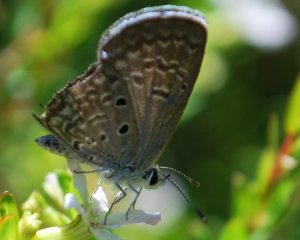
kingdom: Animalia
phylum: Arthropoda
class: Insecta
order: Lepidoptera
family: Lycaenidae
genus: Hemiargus
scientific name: Hemiargus ceraunus
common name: Ceraunus Blue
